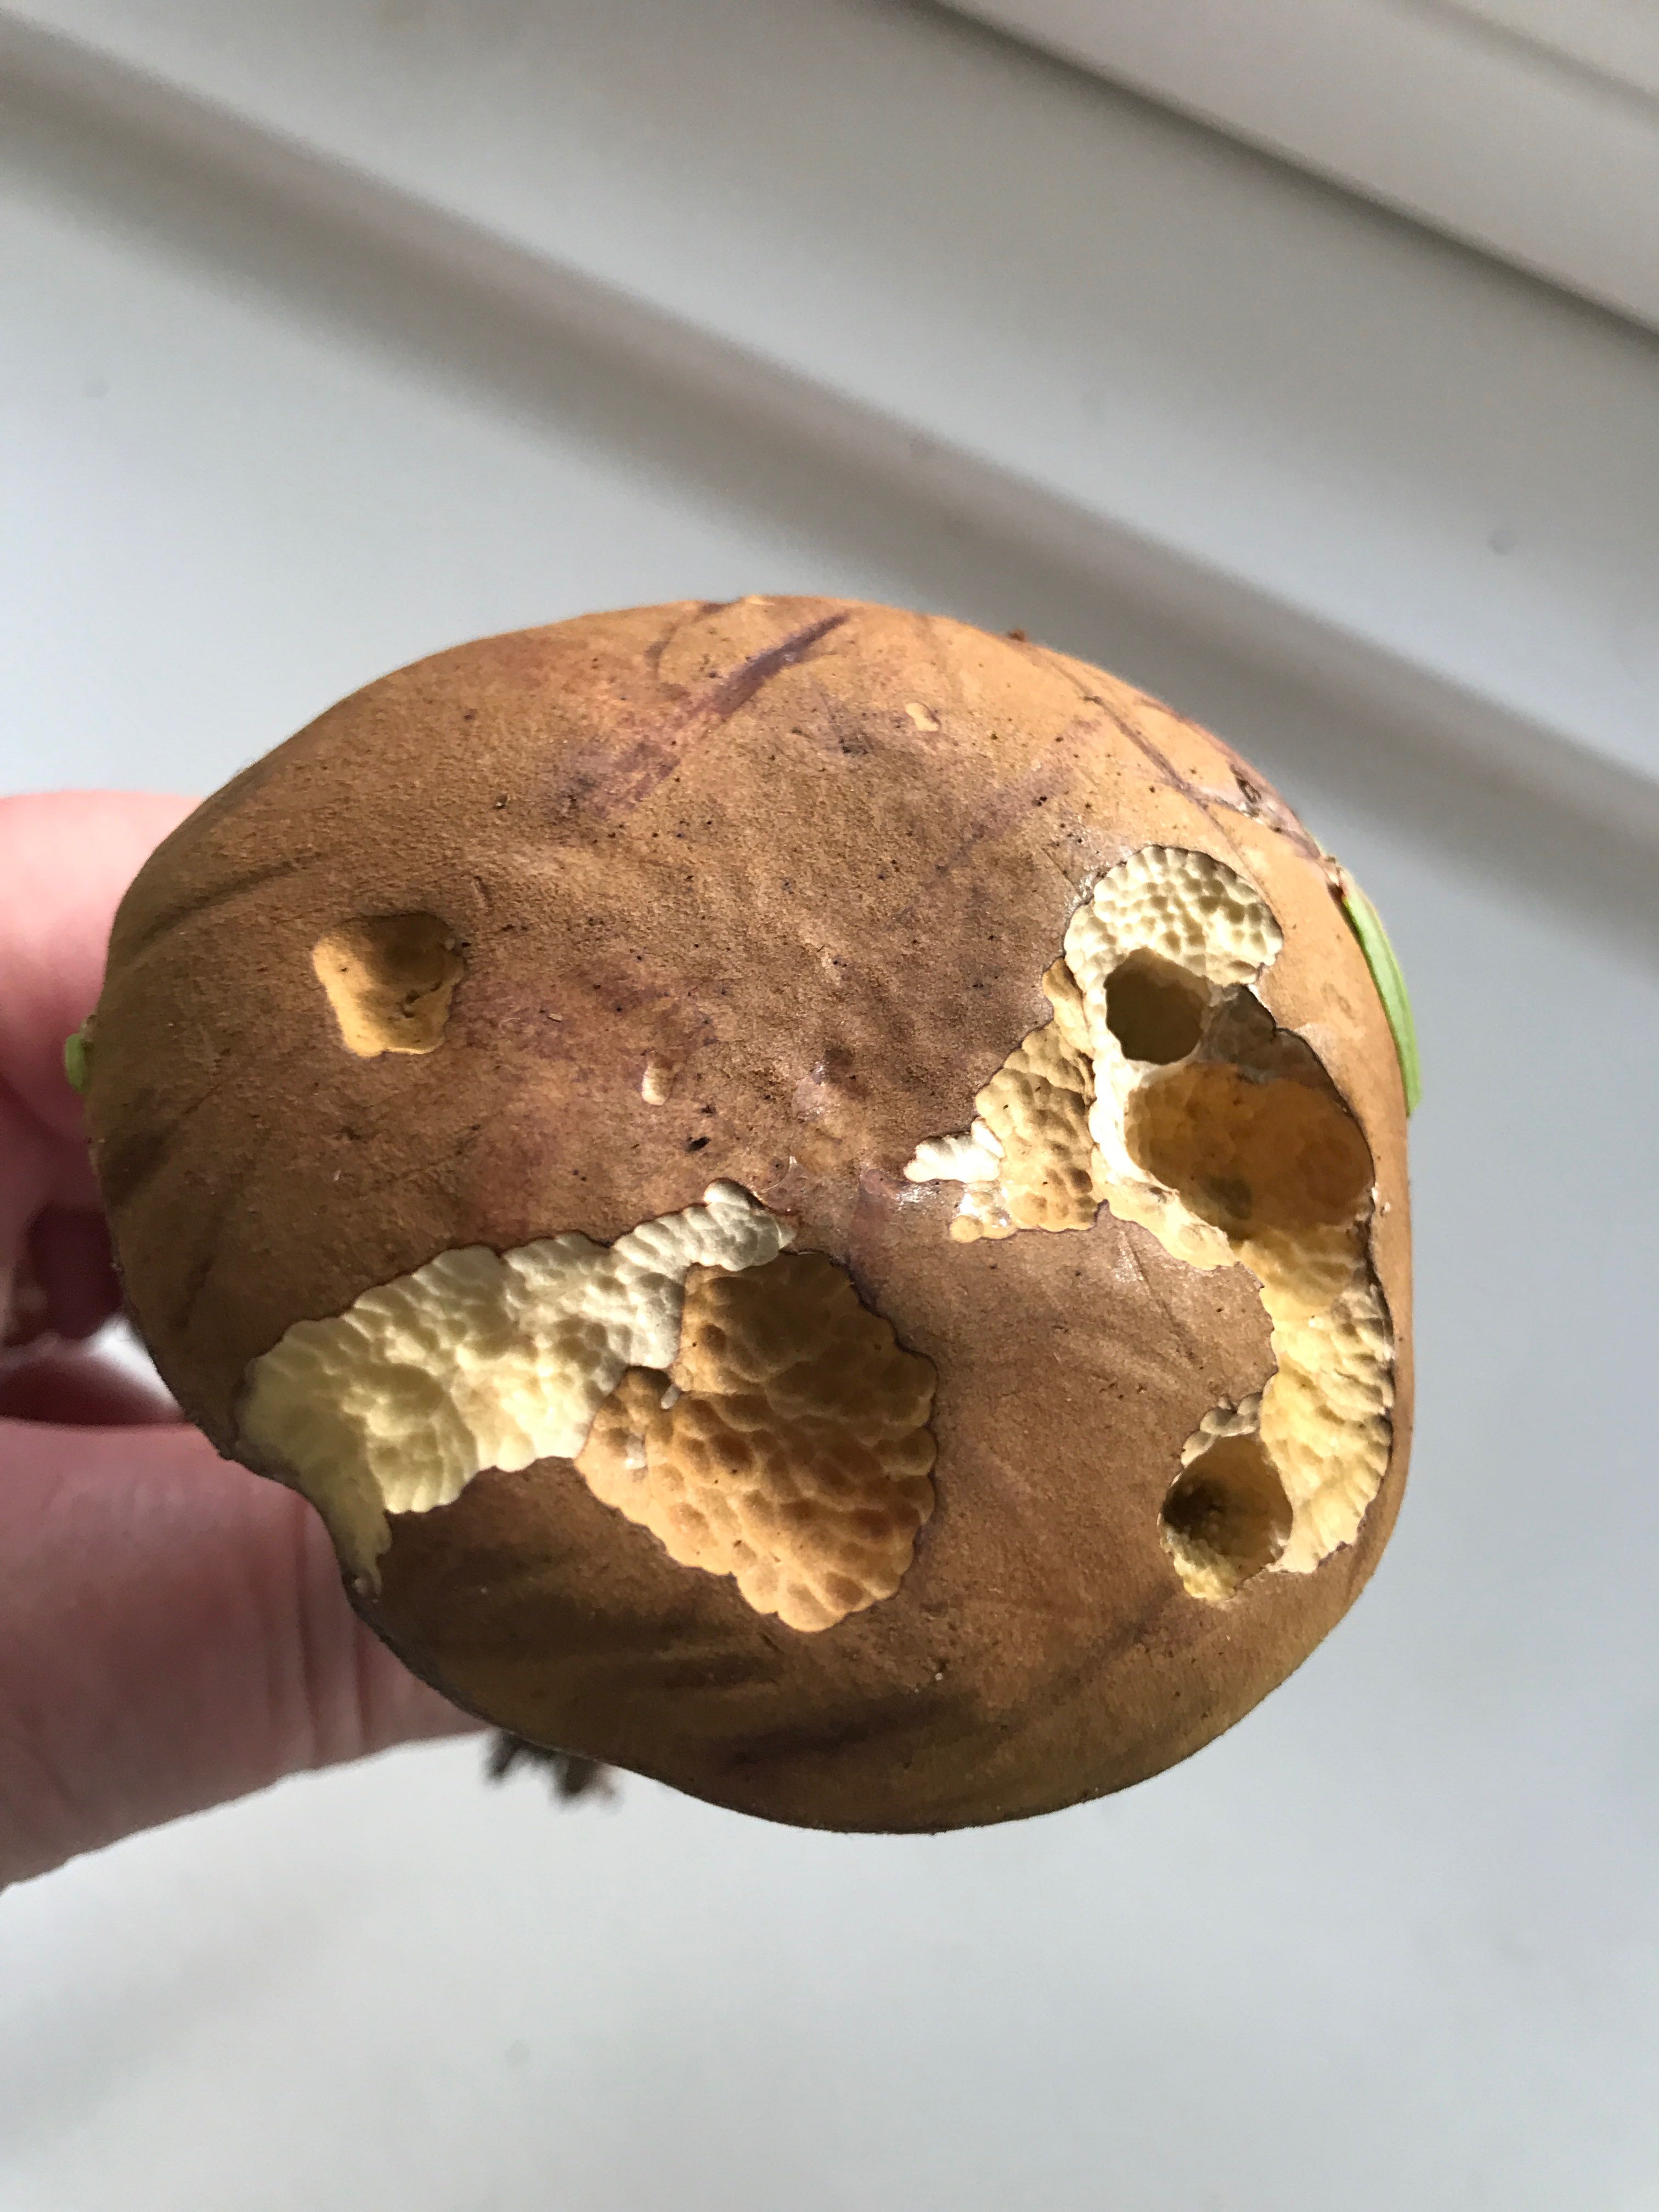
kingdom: Fungi
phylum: Basidiomycota
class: Agaricomycetes
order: Boletales
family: Boletaceae
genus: Imleria
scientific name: Imleria badia
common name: brunstokket rørhat
